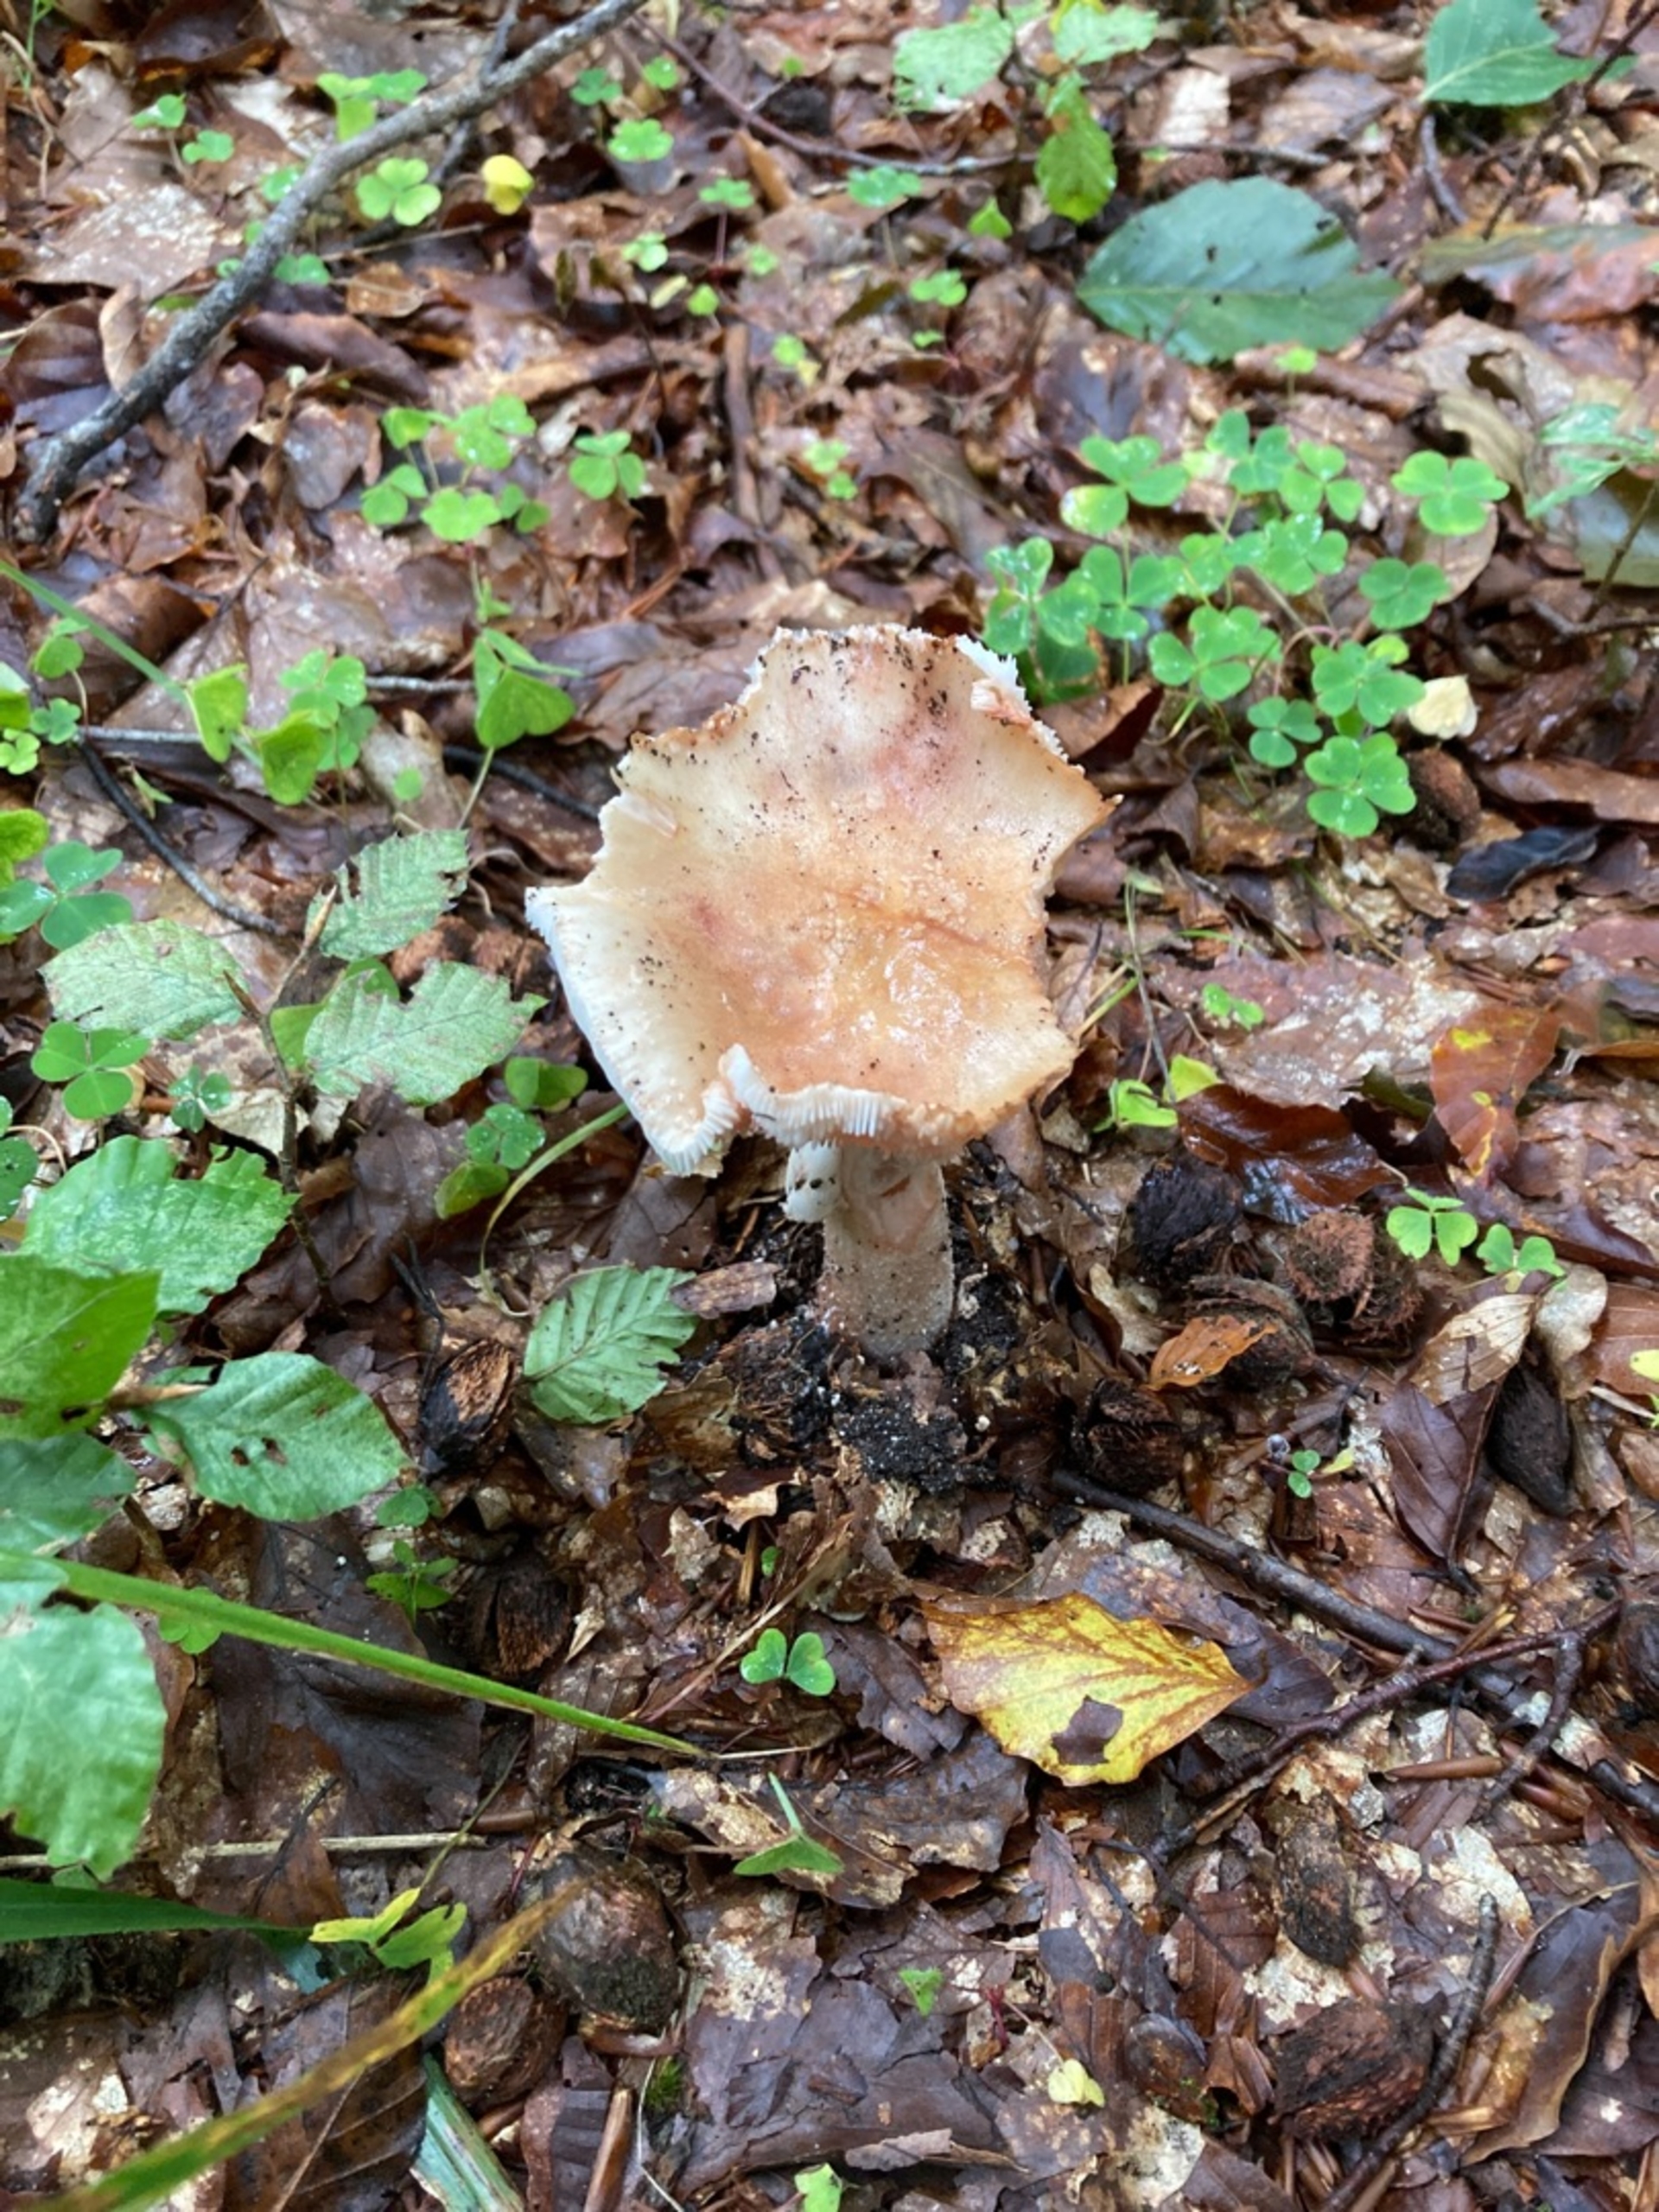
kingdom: Fungi
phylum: Basidiomycota
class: Agaricomycetes
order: Agaricales
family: Amanitaceae
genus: Amanita
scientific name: Amanita rubescens
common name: Rødmende fluesvamp
